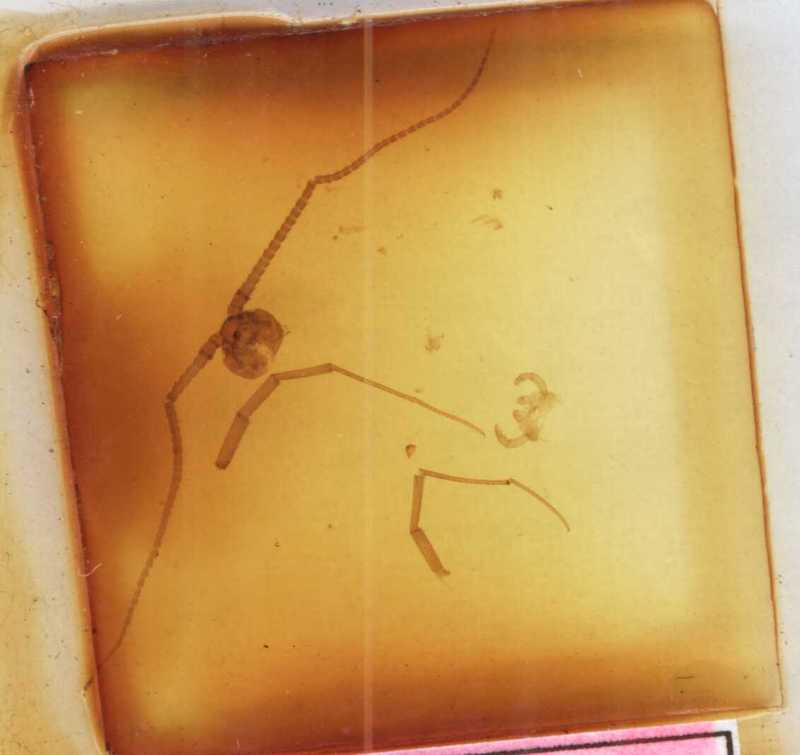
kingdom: Animalia
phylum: Arthropoda
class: Chilopoda
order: Lithobiomorpha
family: Henicopidae
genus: Cermatobius
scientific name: Cermatobius longitarsis
